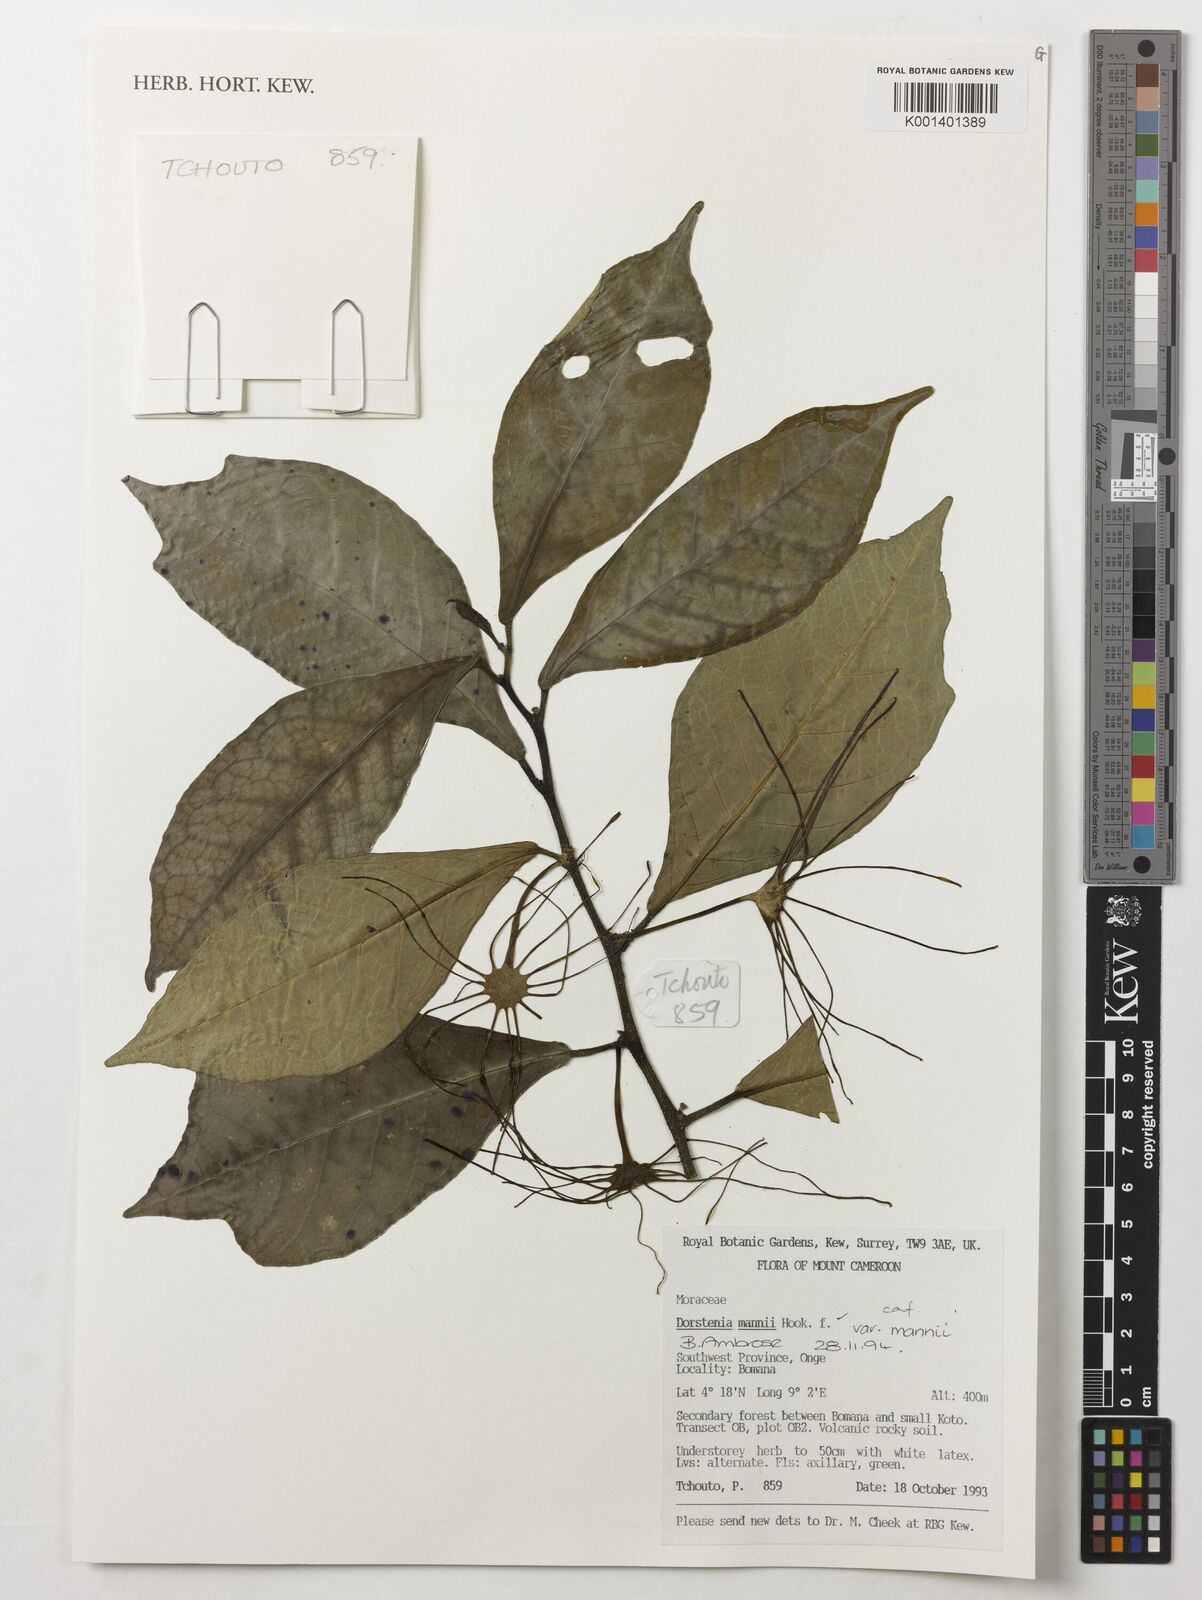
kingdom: Plantae
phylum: Tracheophyta
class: Magnoliopsida
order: Rosales
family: Moraceae
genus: Dorstenia
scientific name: Dorstenia mannii
